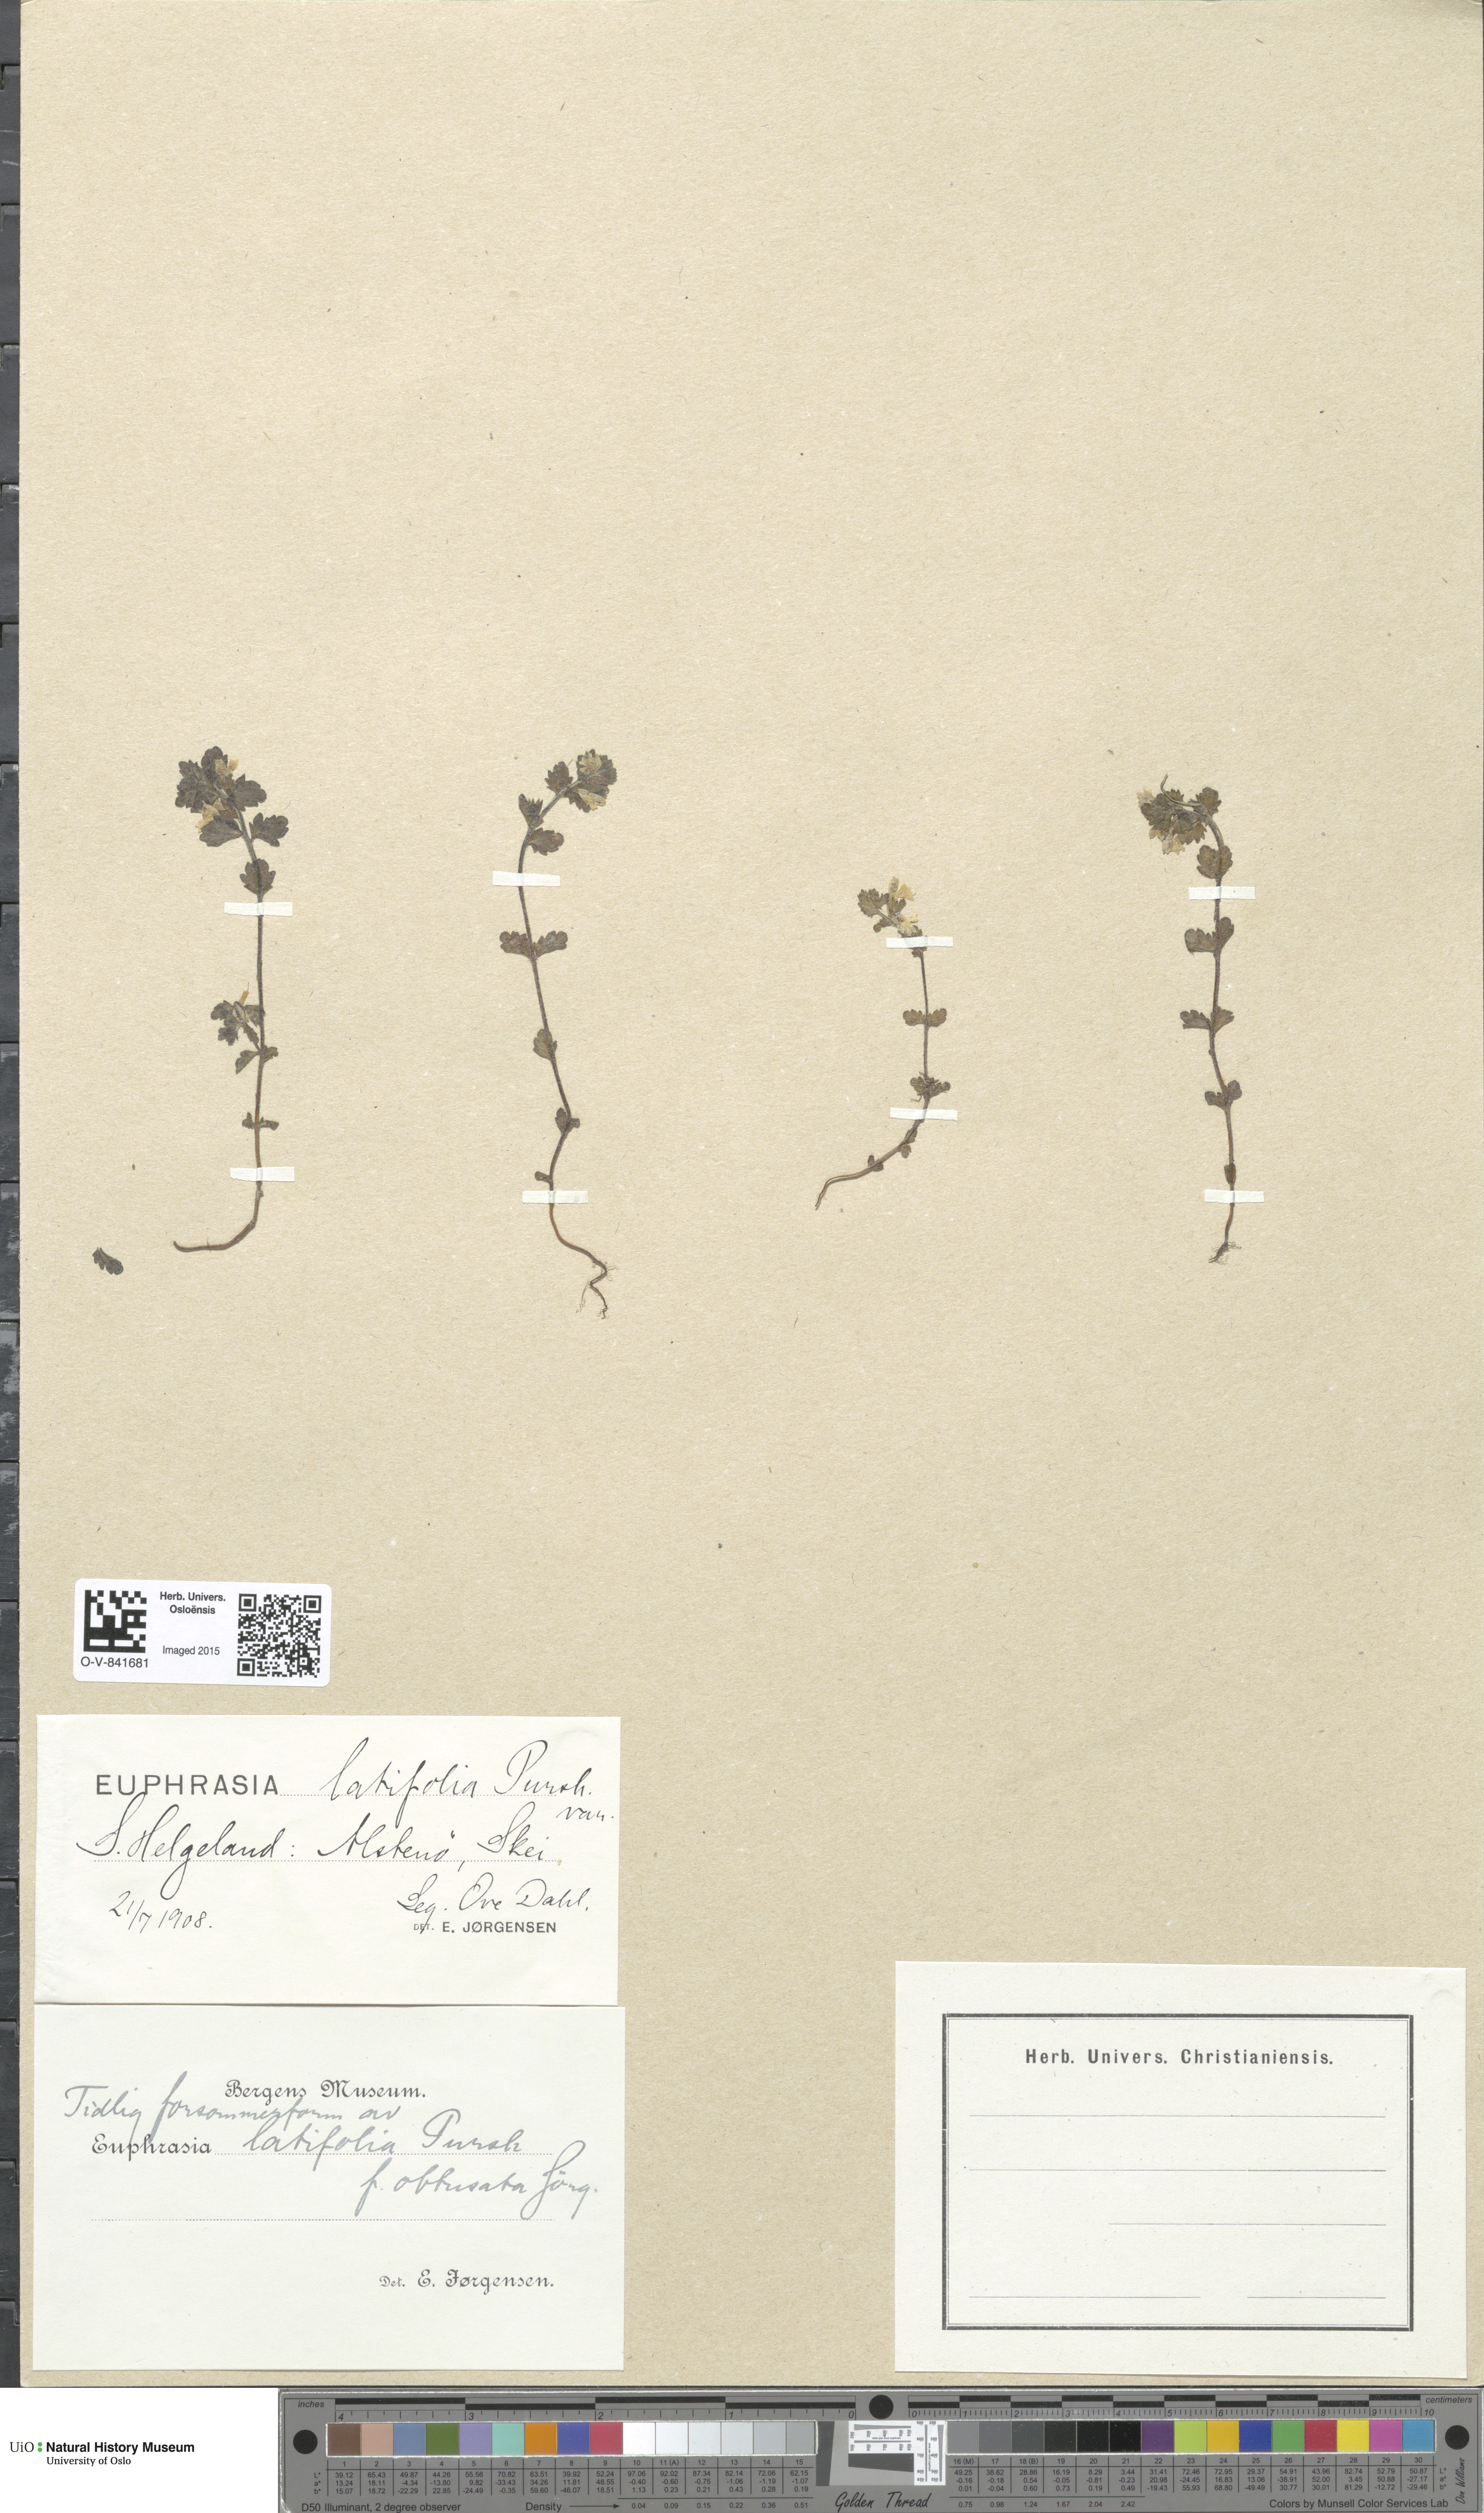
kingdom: Plantae
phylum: Tracheophyta
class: Magnoliopsida
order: Lamiales
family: Orobanchaceae
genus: Euphrasia
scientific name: Euphrasia wettsteinii
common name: Wettstein's eyebright
